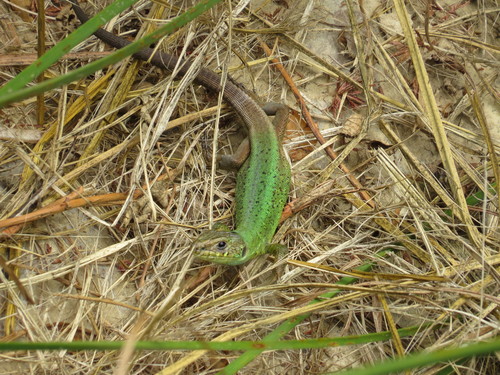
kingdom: Animalia
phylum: Chordata
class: Squamata
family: Lacertidae
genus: Lacerta
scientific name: Lacerta schreiberi
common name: Iberian emerald lizard
